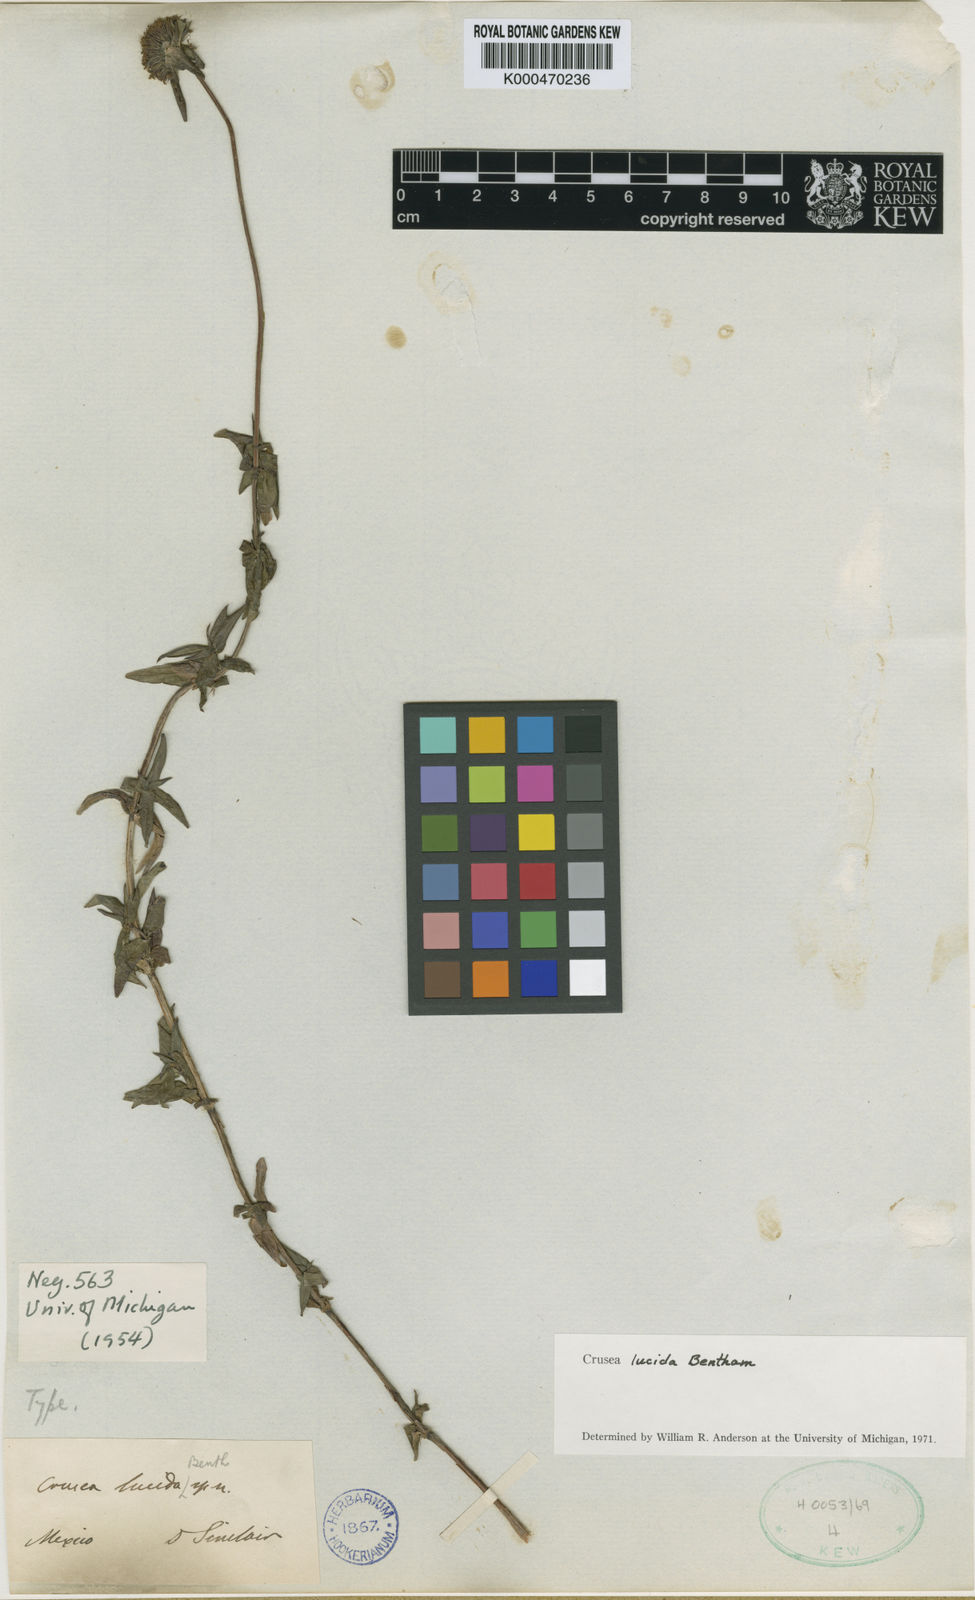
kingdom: Plantae
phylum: Tracheophyta
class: Magnoliopsida
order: Gentianales
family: Rubiaceae
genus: Crusea
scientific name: Crusea lucida
